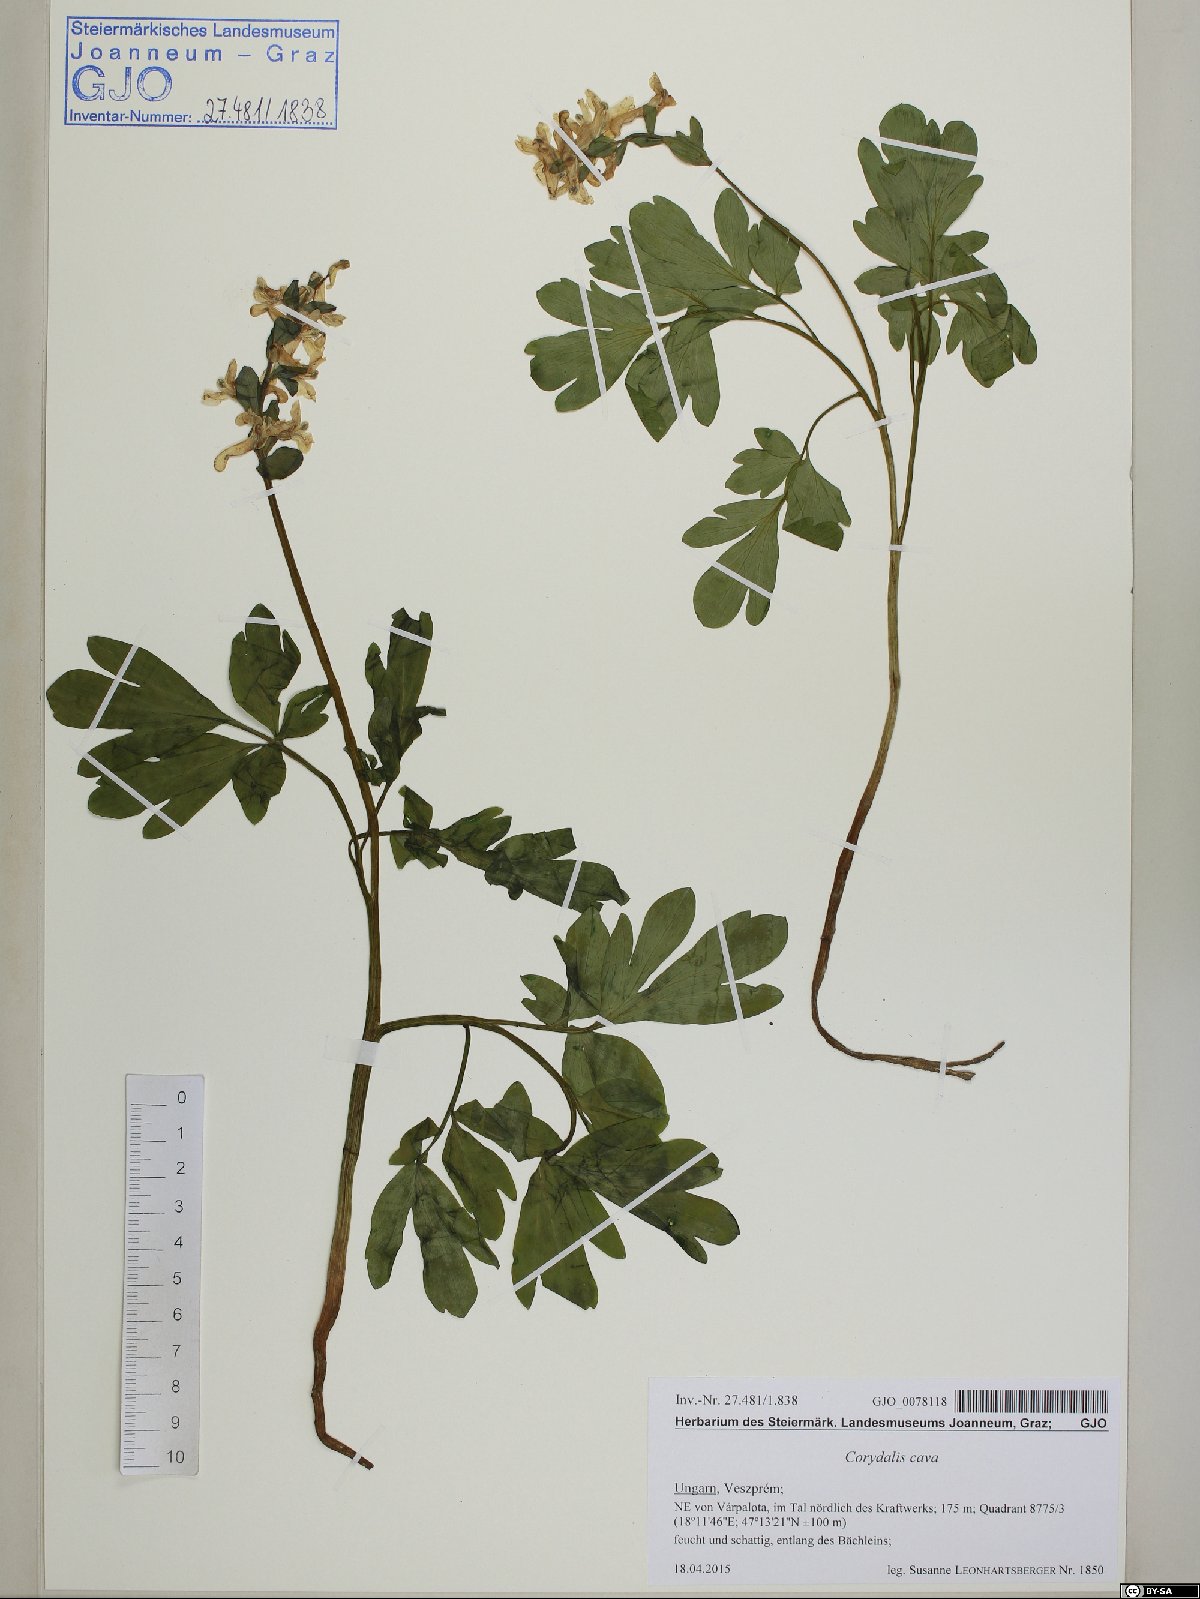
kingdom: Plantae
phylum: Tracheophyta
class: Magnoliopsida
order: Ranunculales
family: Papaveraceae
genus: Corydalis
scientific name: Corydalis cava
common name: Hollowroot
